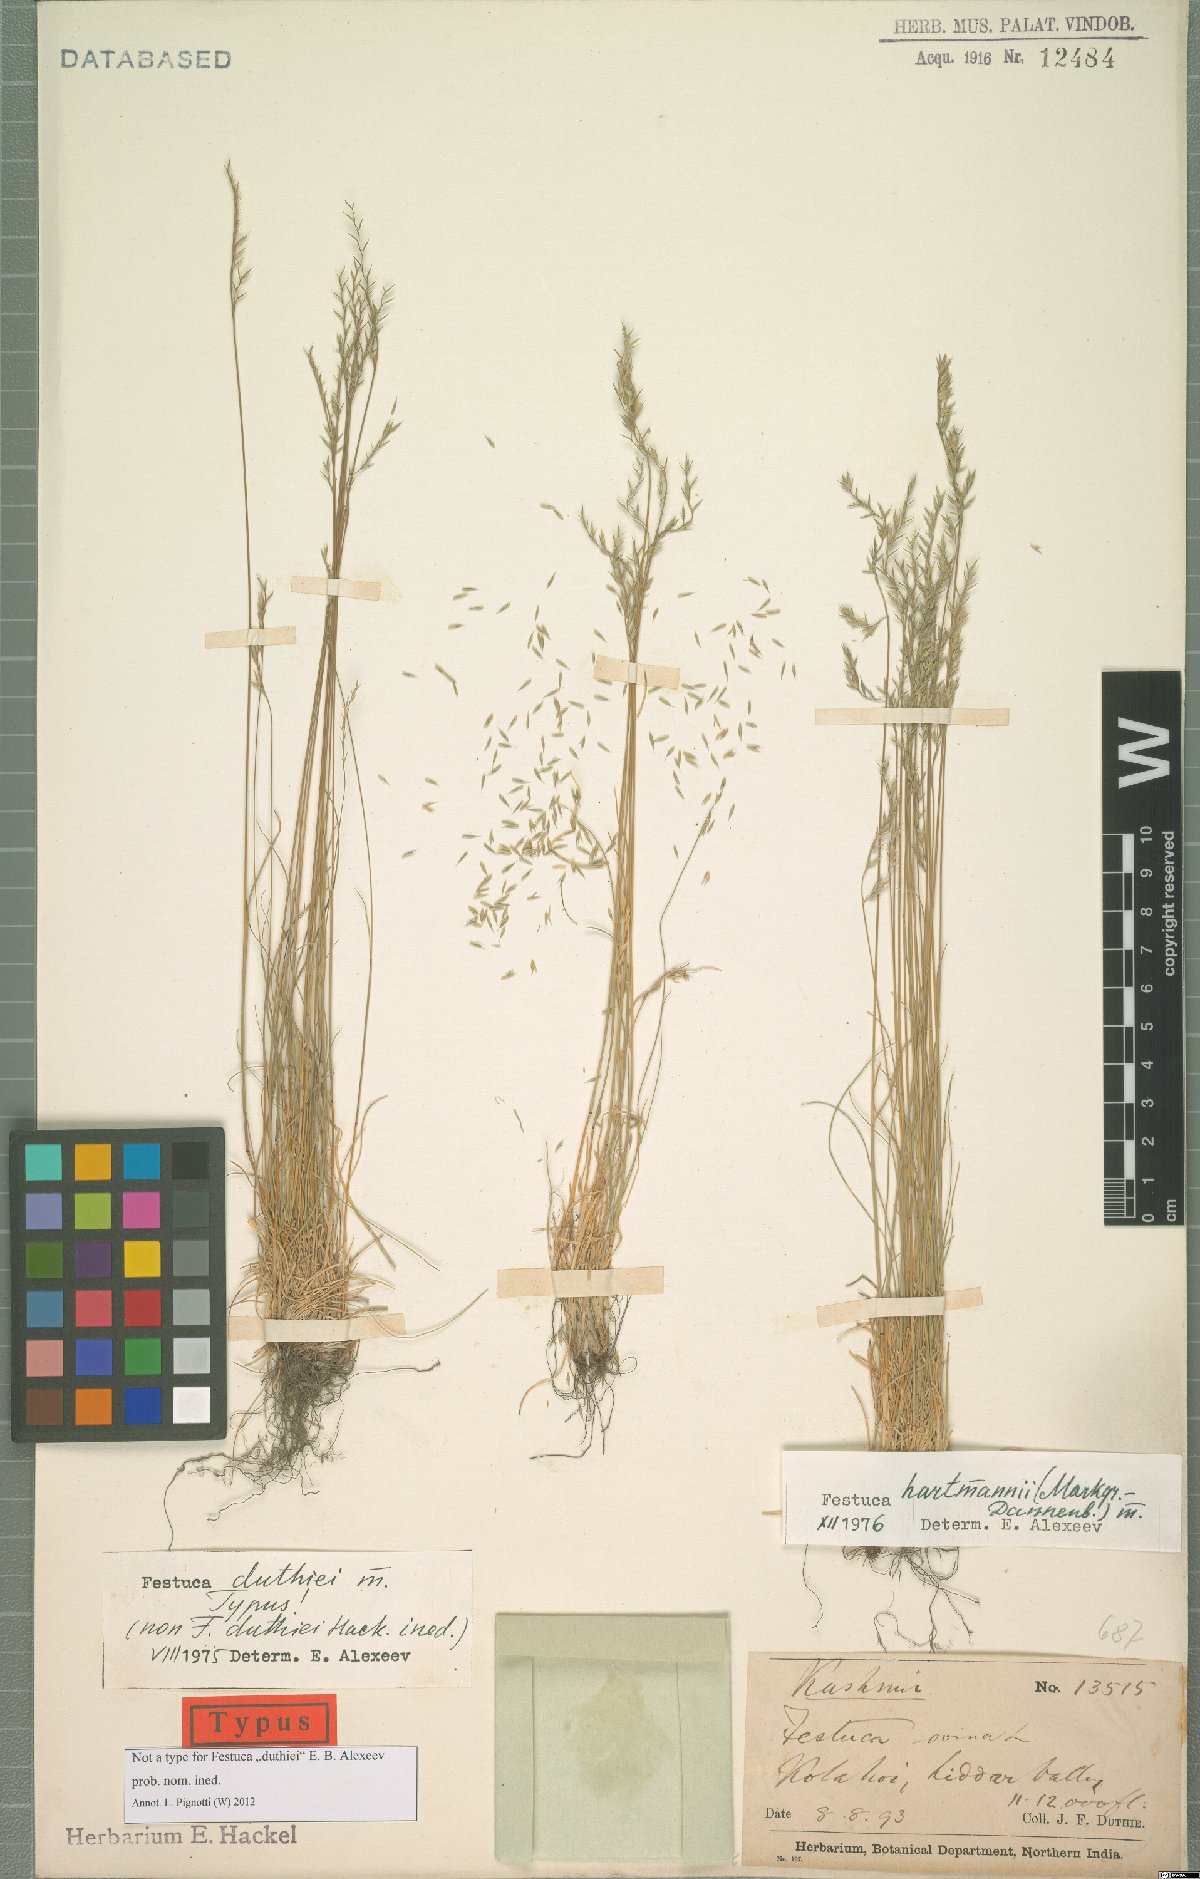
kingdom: Plantae
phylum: Tracheophyta
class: Liliopsida
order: Poales
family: Poaceae
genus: Festuca
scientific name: Festuca hartmannii
